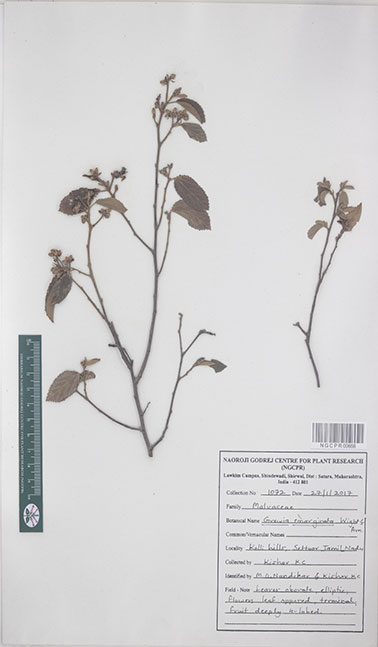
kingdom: Plantae
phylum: Tracheophyta
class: Magnoliopsida
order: Malvales
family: Malvaceae
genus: Grewia
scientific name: Grewia oppositifolia
